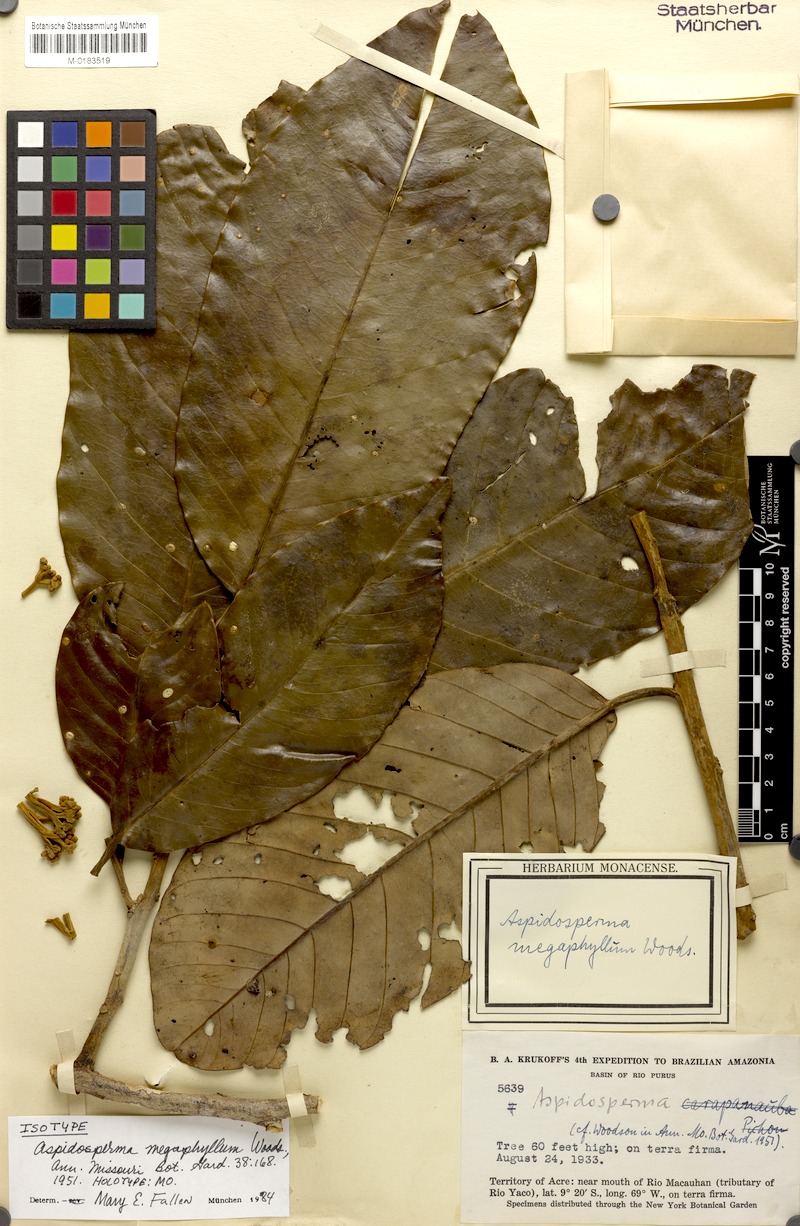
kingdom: Plantae
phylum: Tracheophyta
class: Magnoliopsida
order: Gentianales
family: Apocynaceae
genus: Aspidosperma
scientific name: Aspidosperma megaphyllum
